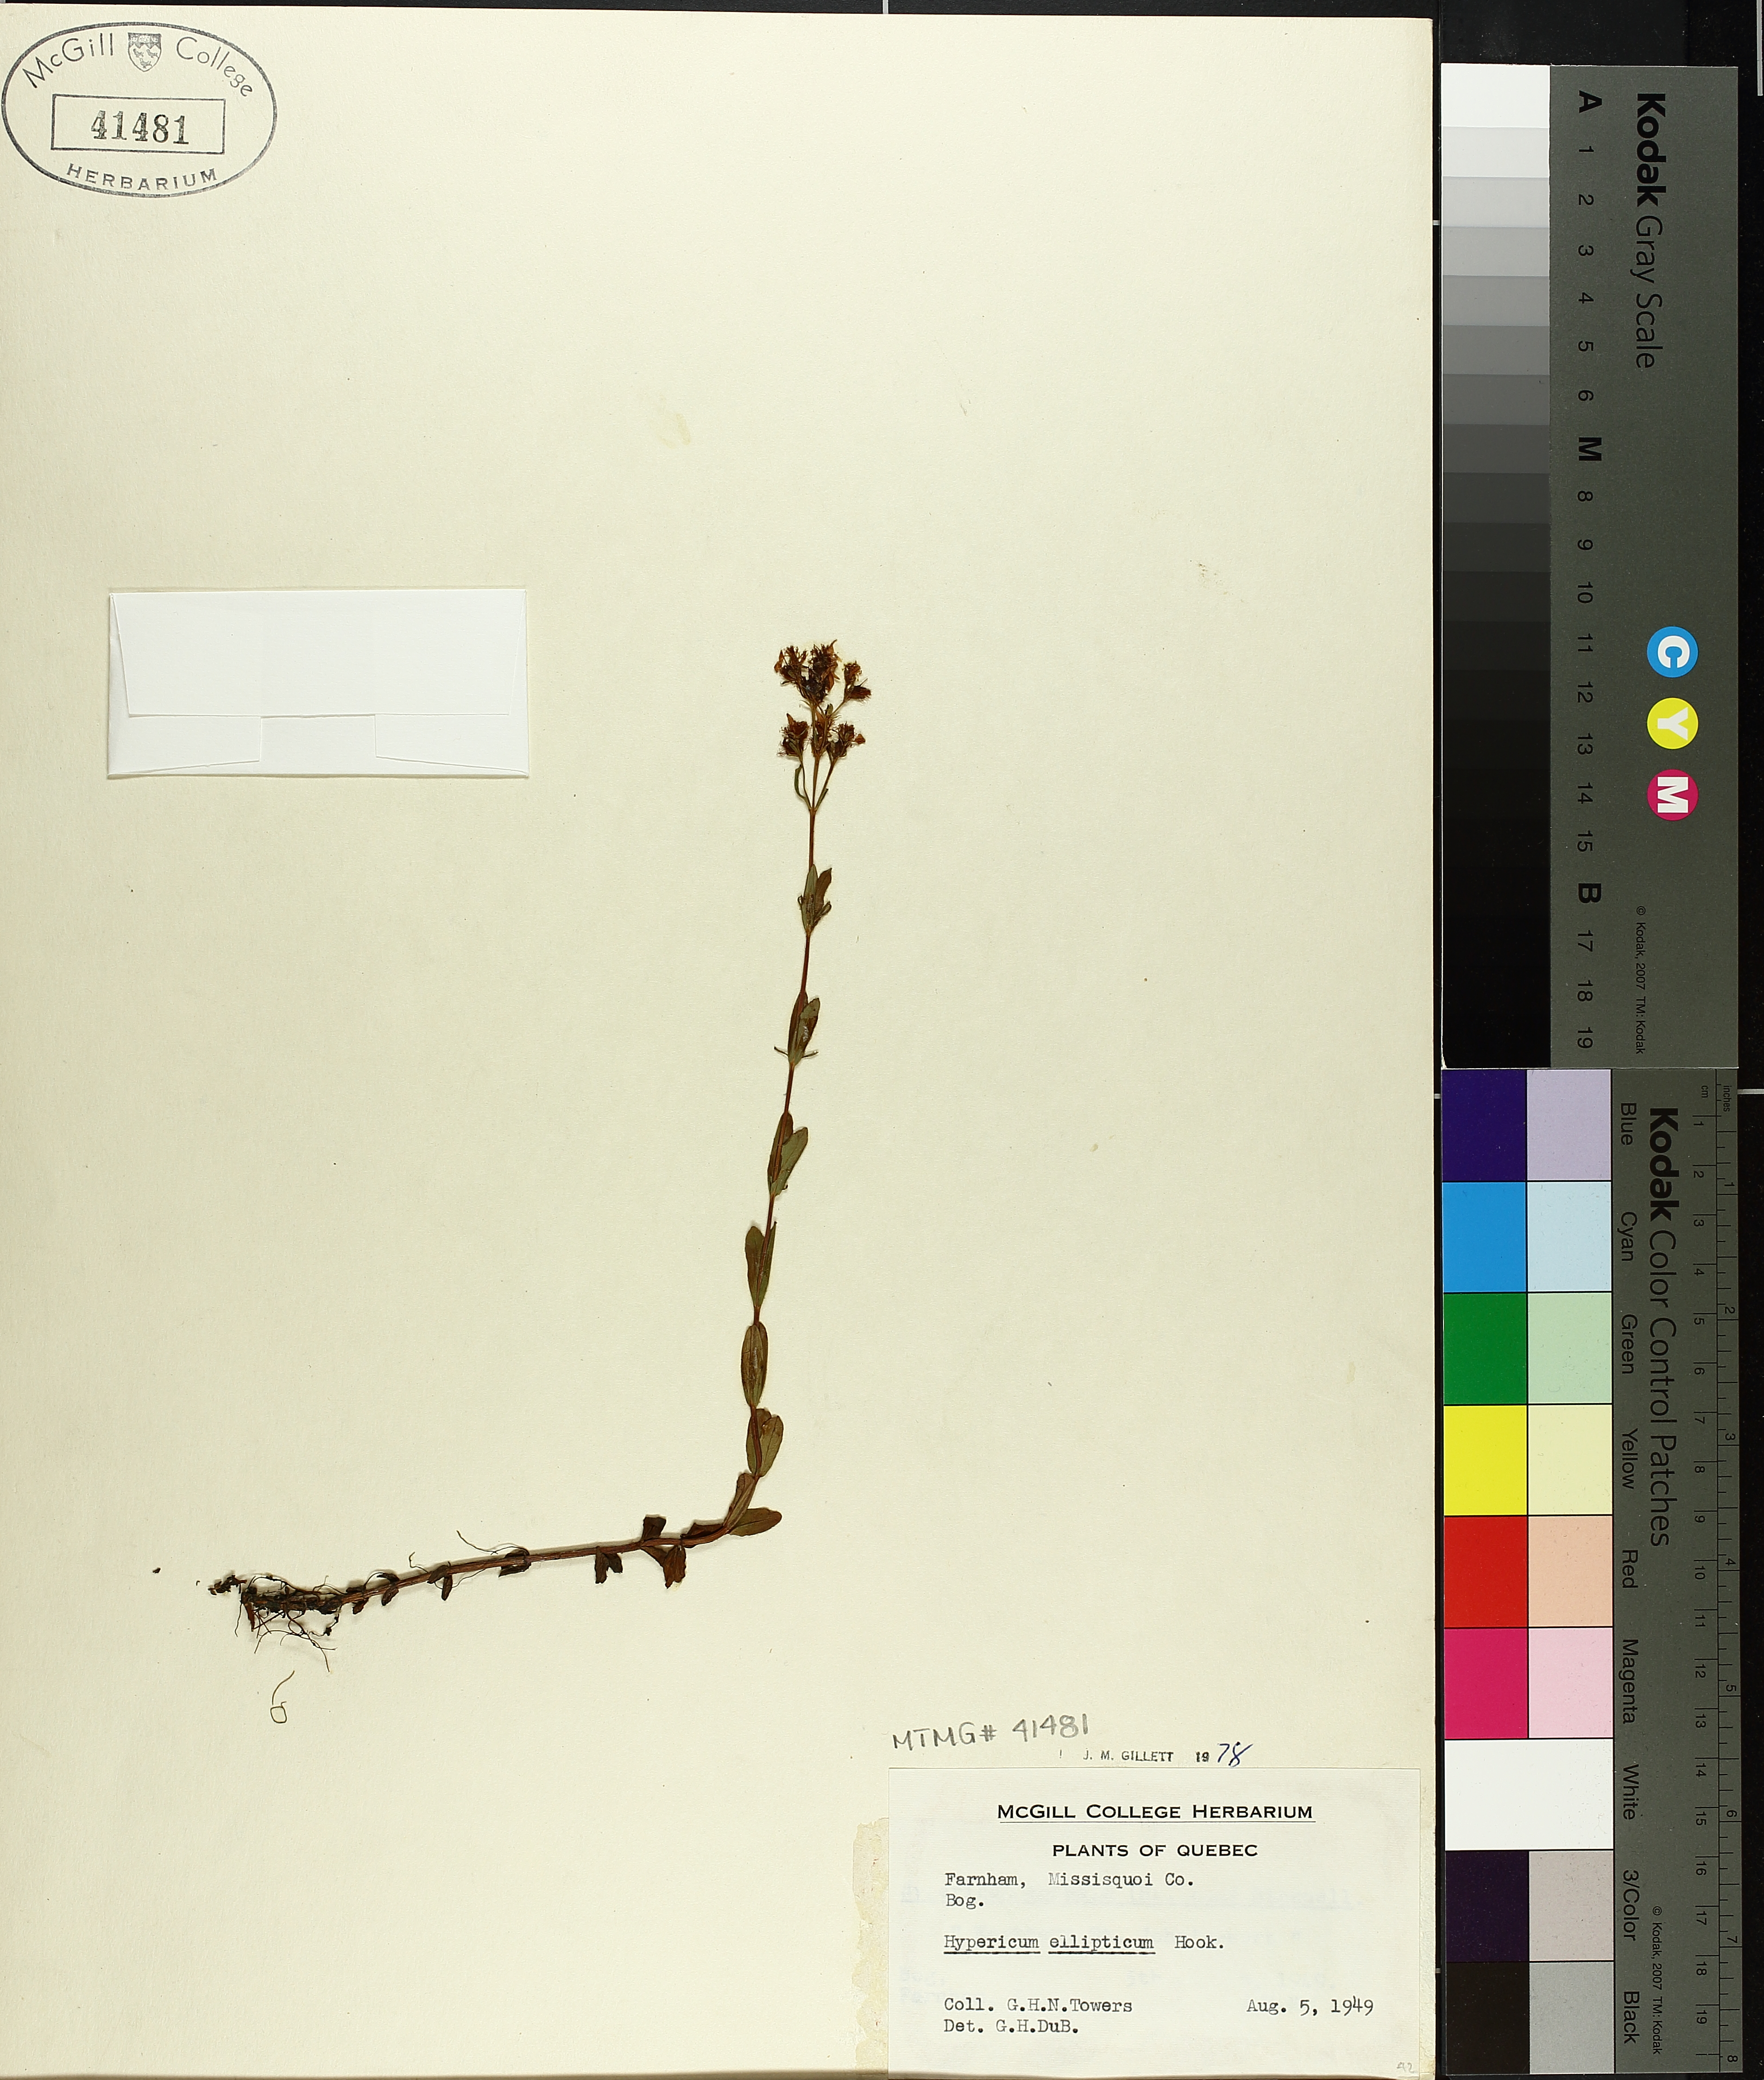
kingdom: Plantae
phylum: Tracheophyta
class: Magnoliopsida
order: Malpighiales
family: Hypericaceae
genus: Hypericum
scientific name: Hypericum ellipticum
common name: Elliptic st. john's-wort
